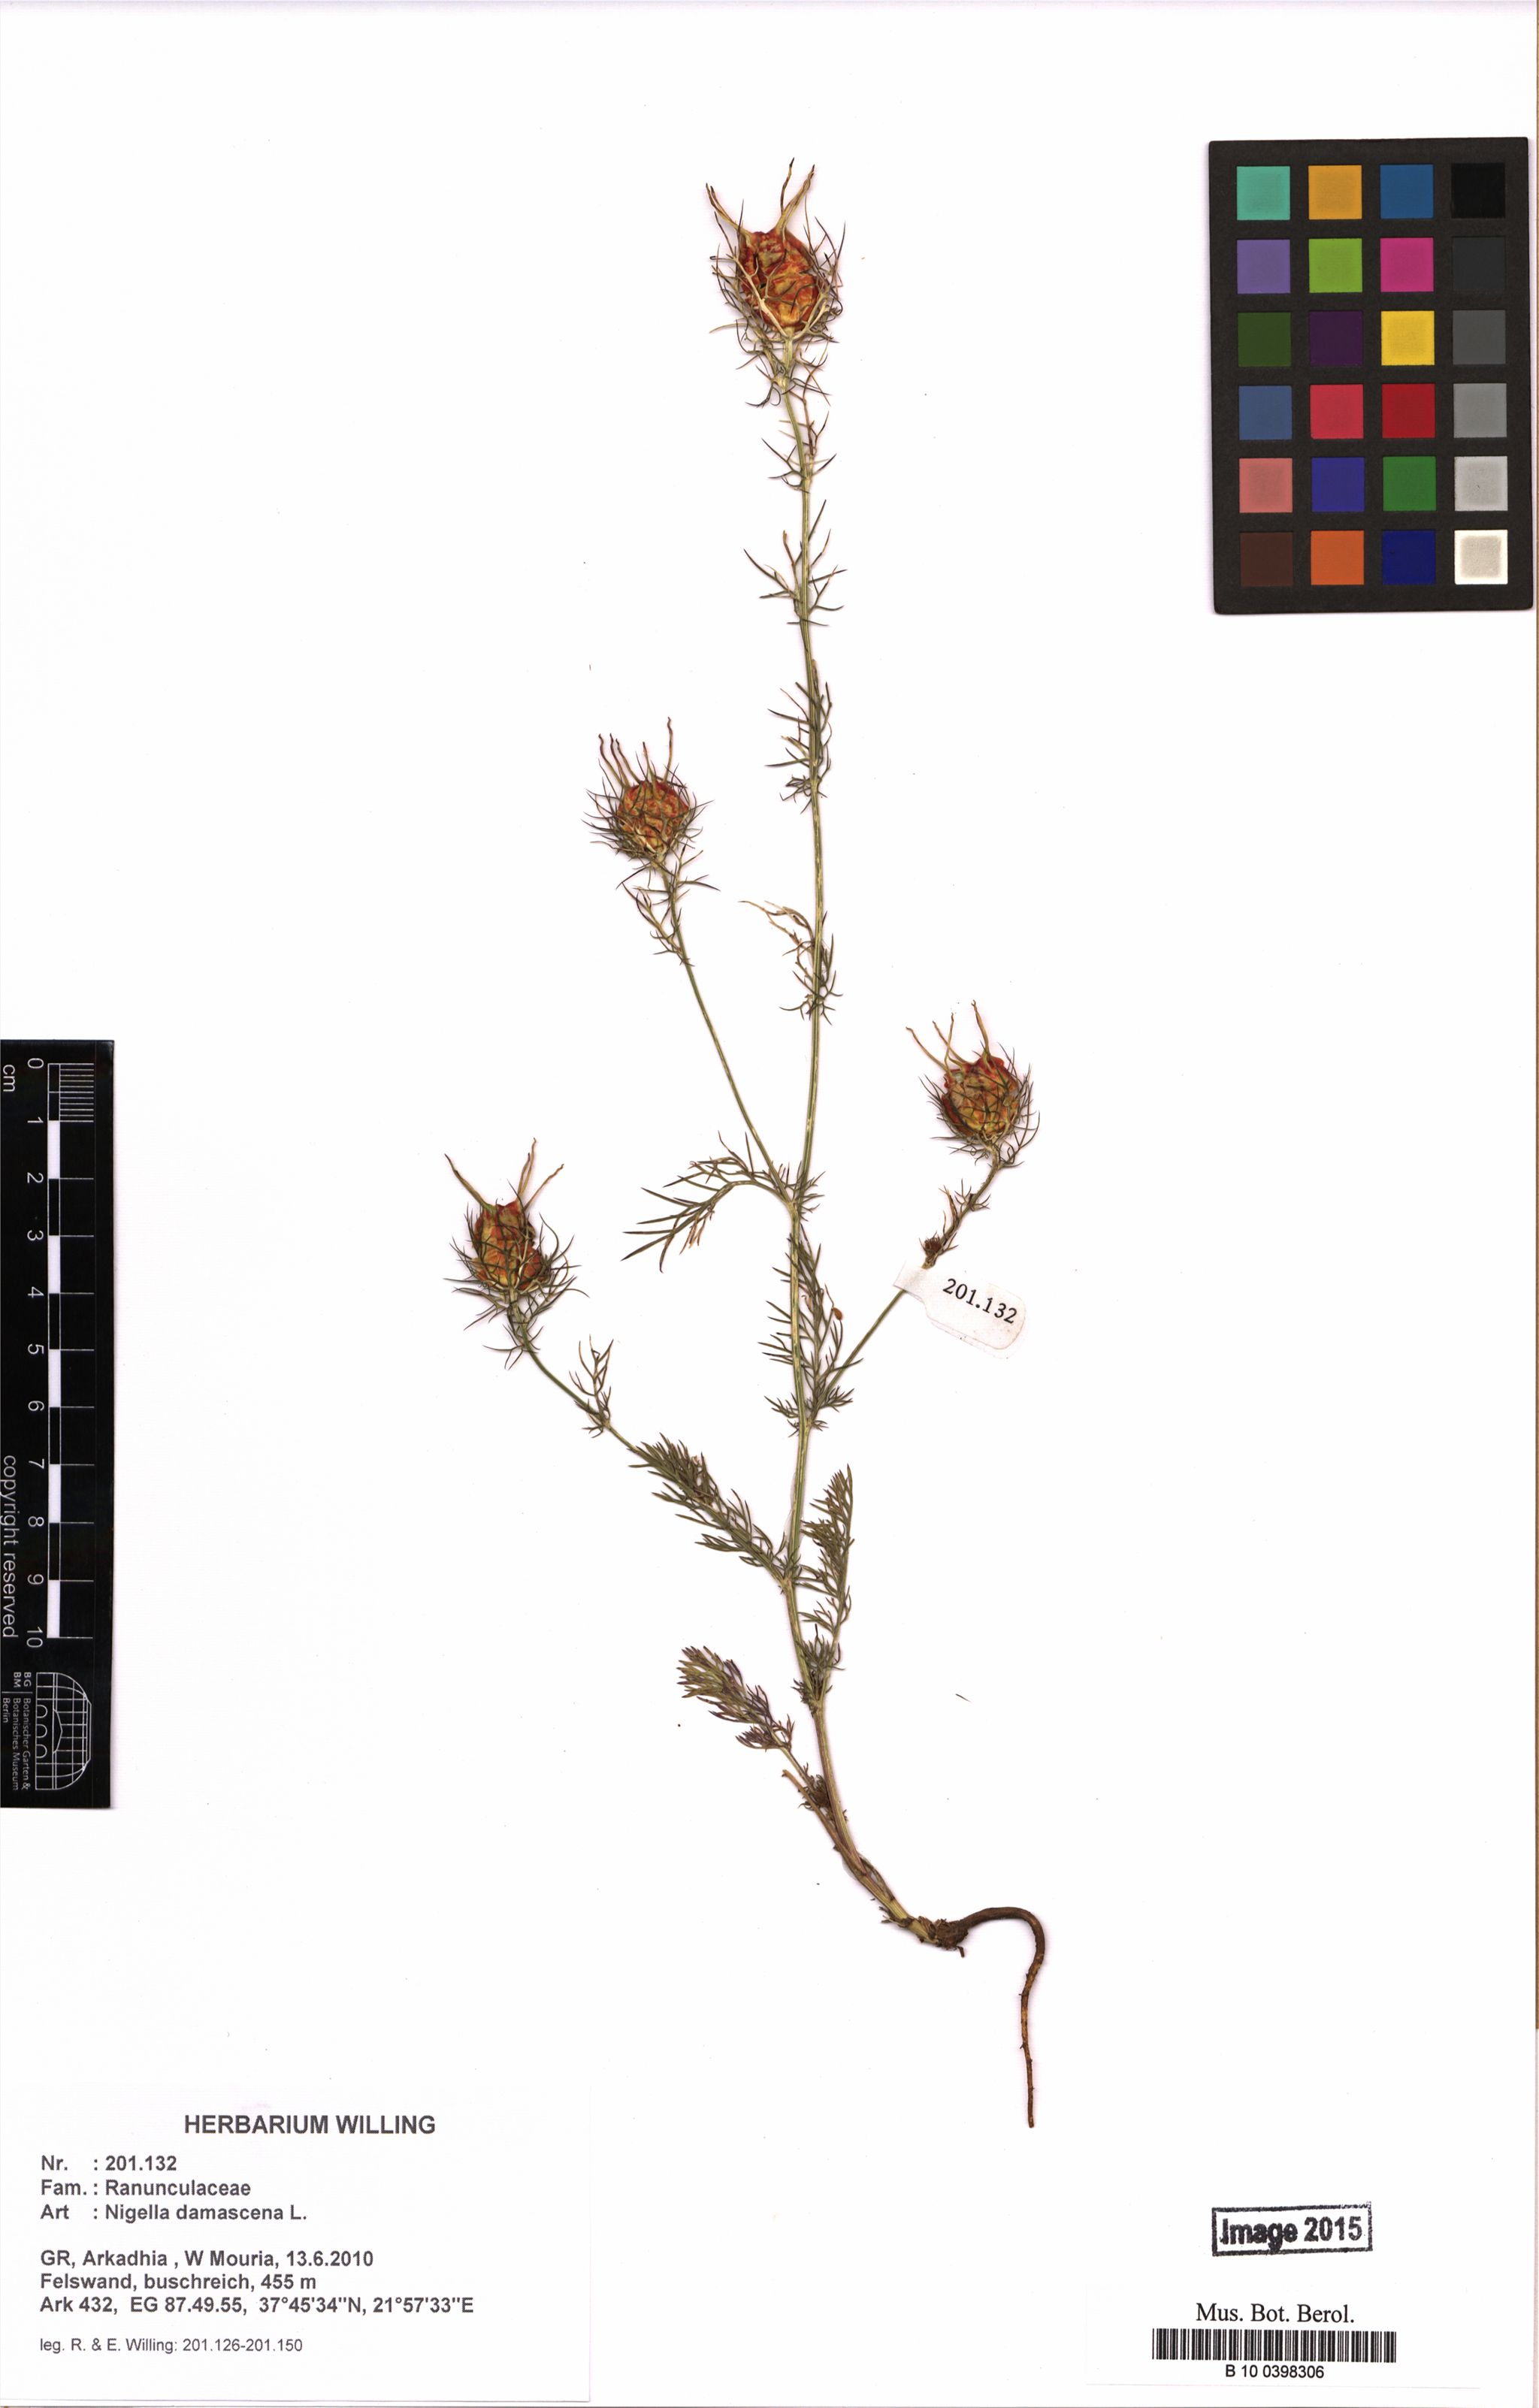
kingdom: Plantae
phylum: Tracheophyta
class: Magnoliopsida
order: Ranunculales
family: Ranunculaceae
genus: Nigella
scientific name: Nigella damascena
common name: Love-in-a-mist
